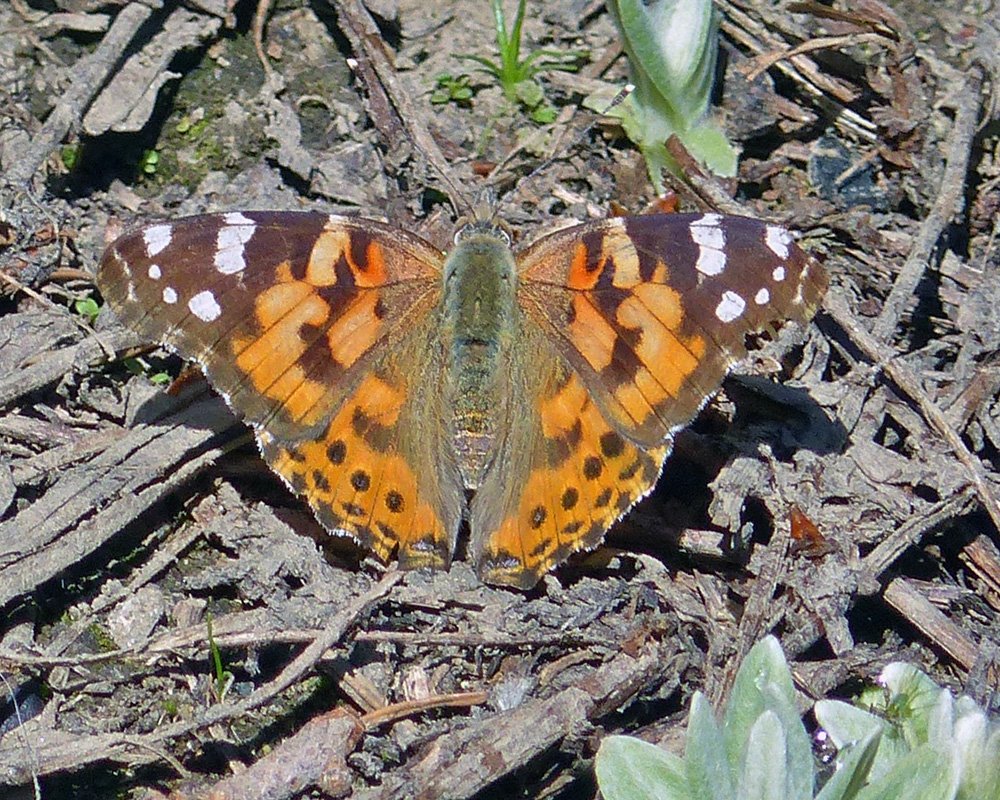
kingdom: Animalia
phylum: Arthropoda
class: Insecta
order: Lepidoptera
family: Nymphalidae
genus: Vanessa
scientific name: Vanessa cardui
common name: Painted Lady
